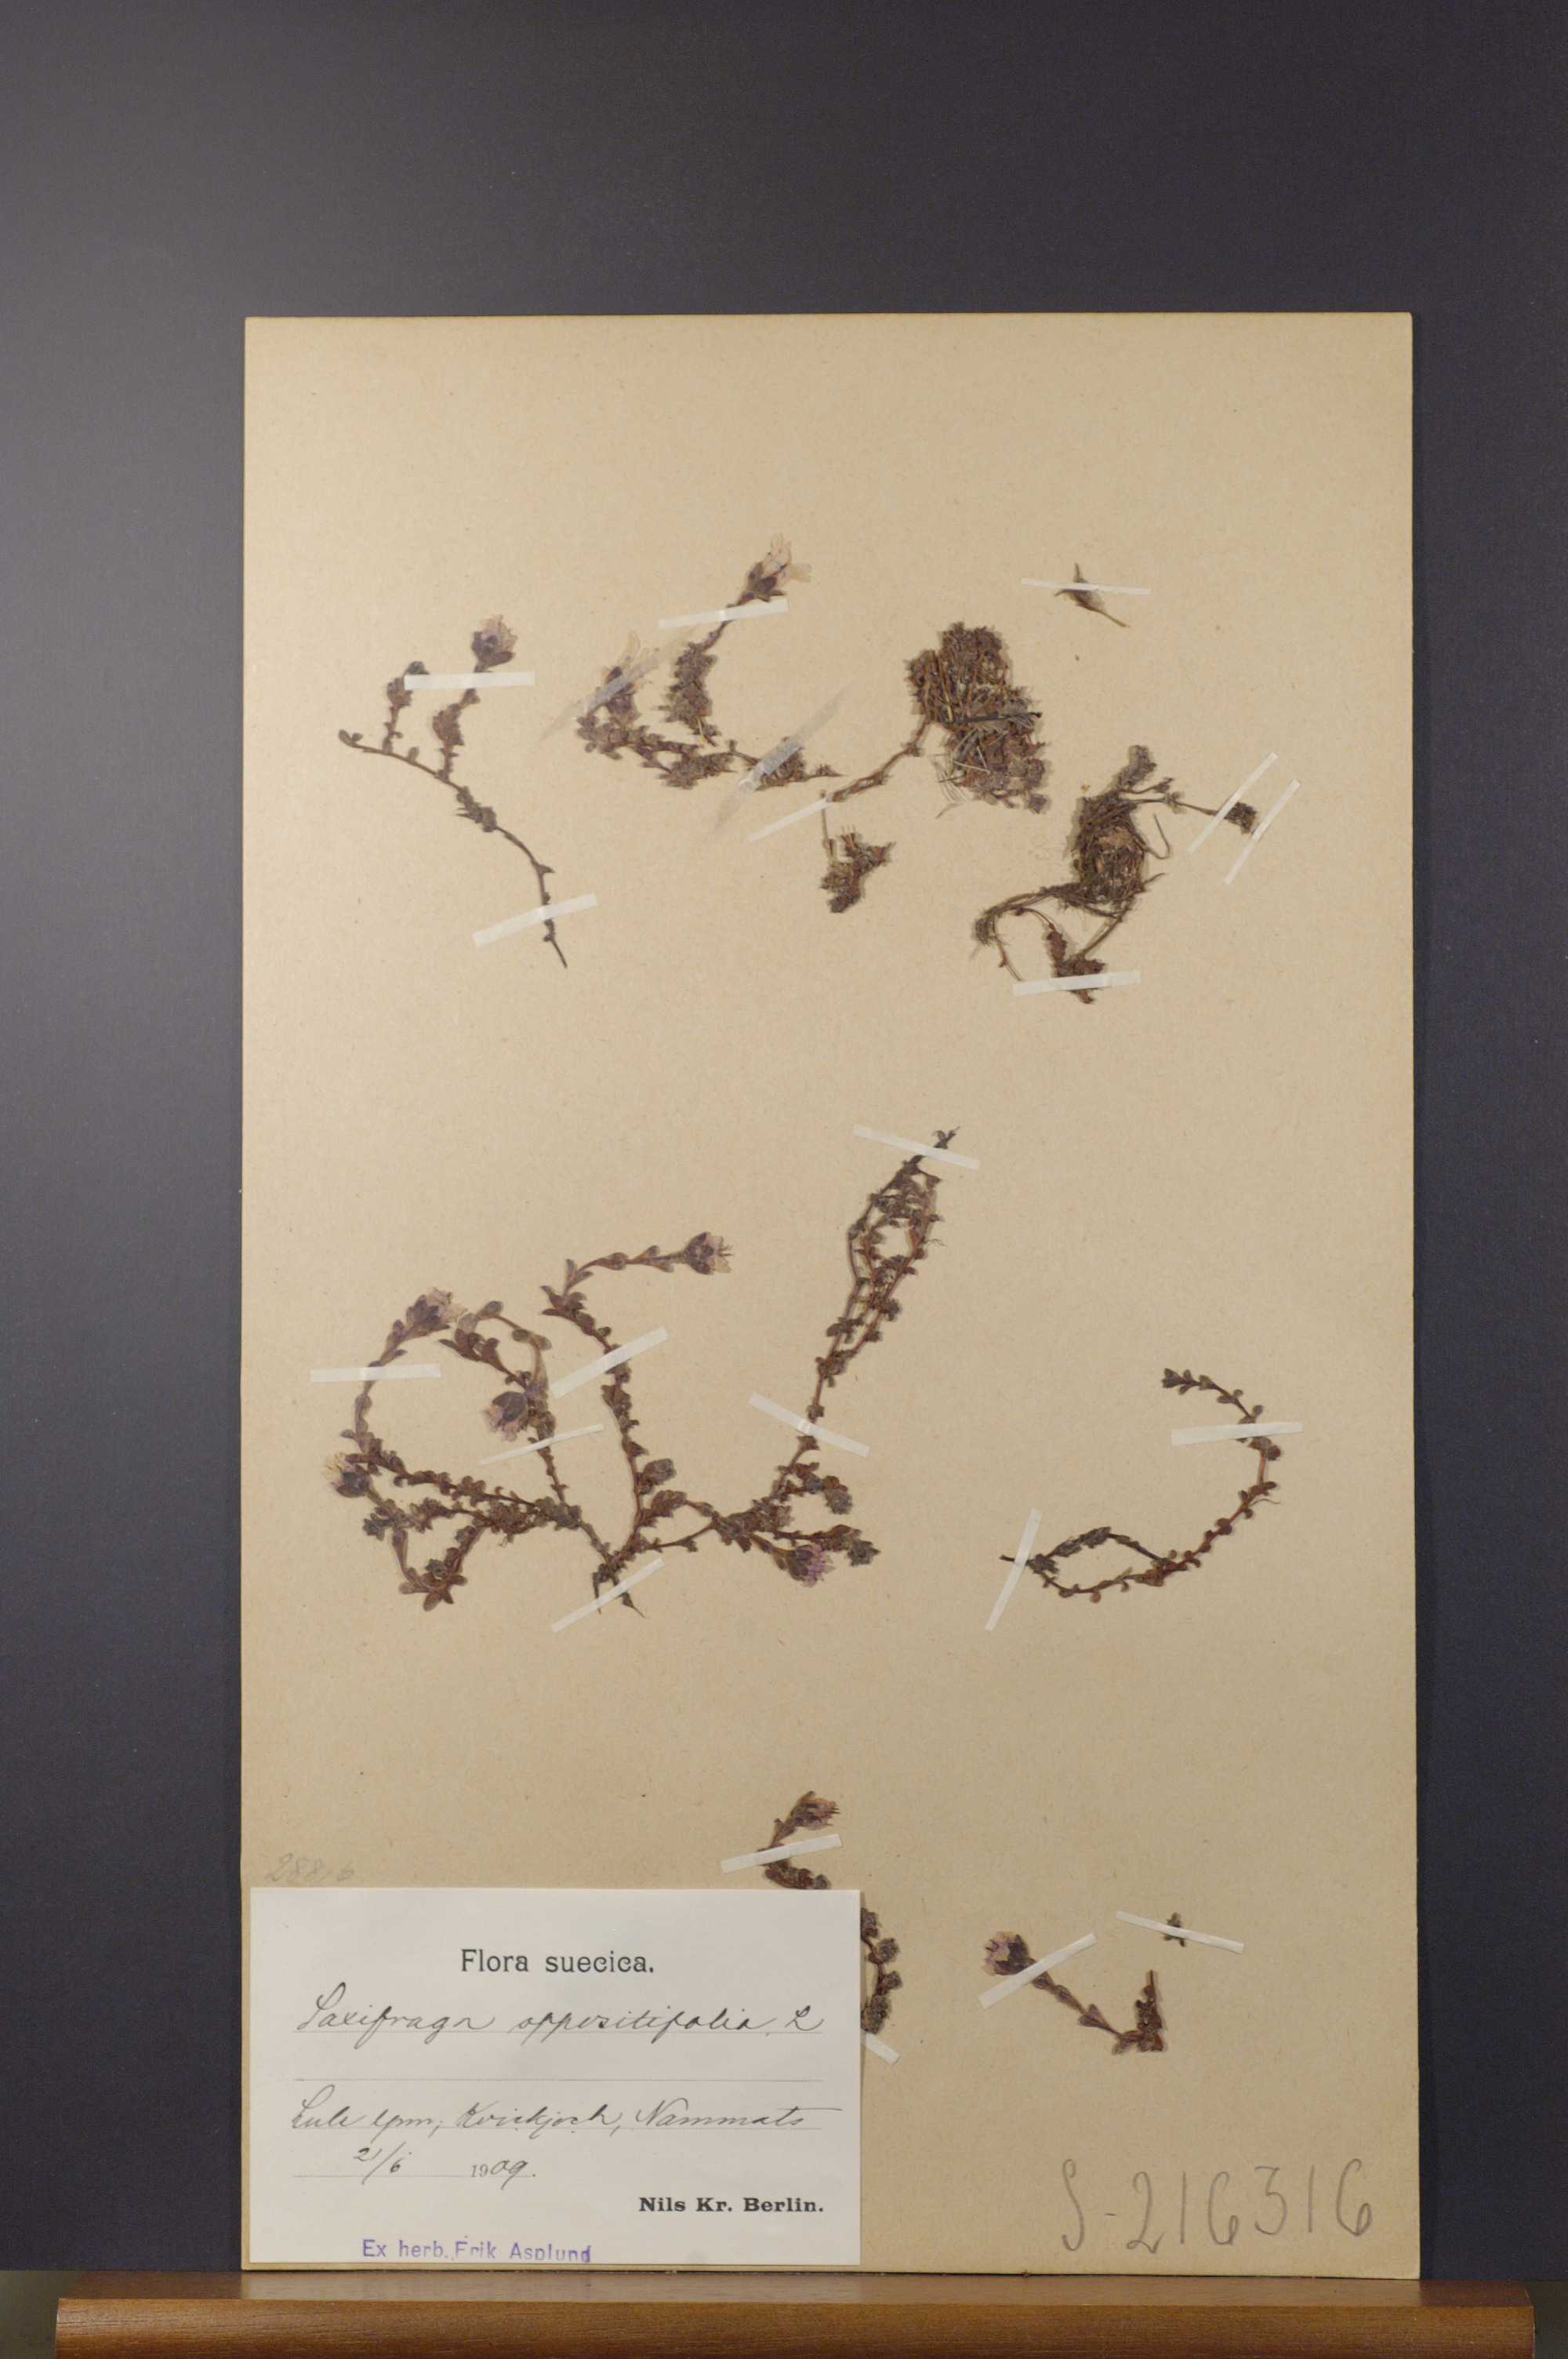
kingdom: Plantae
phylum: Tracheophyta
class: Magnoliopsida
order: Saxifragales
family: Saxifragaceae
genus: Saxifraga
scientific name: Saxifraga oppositifolia
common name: Purple saxifrage
